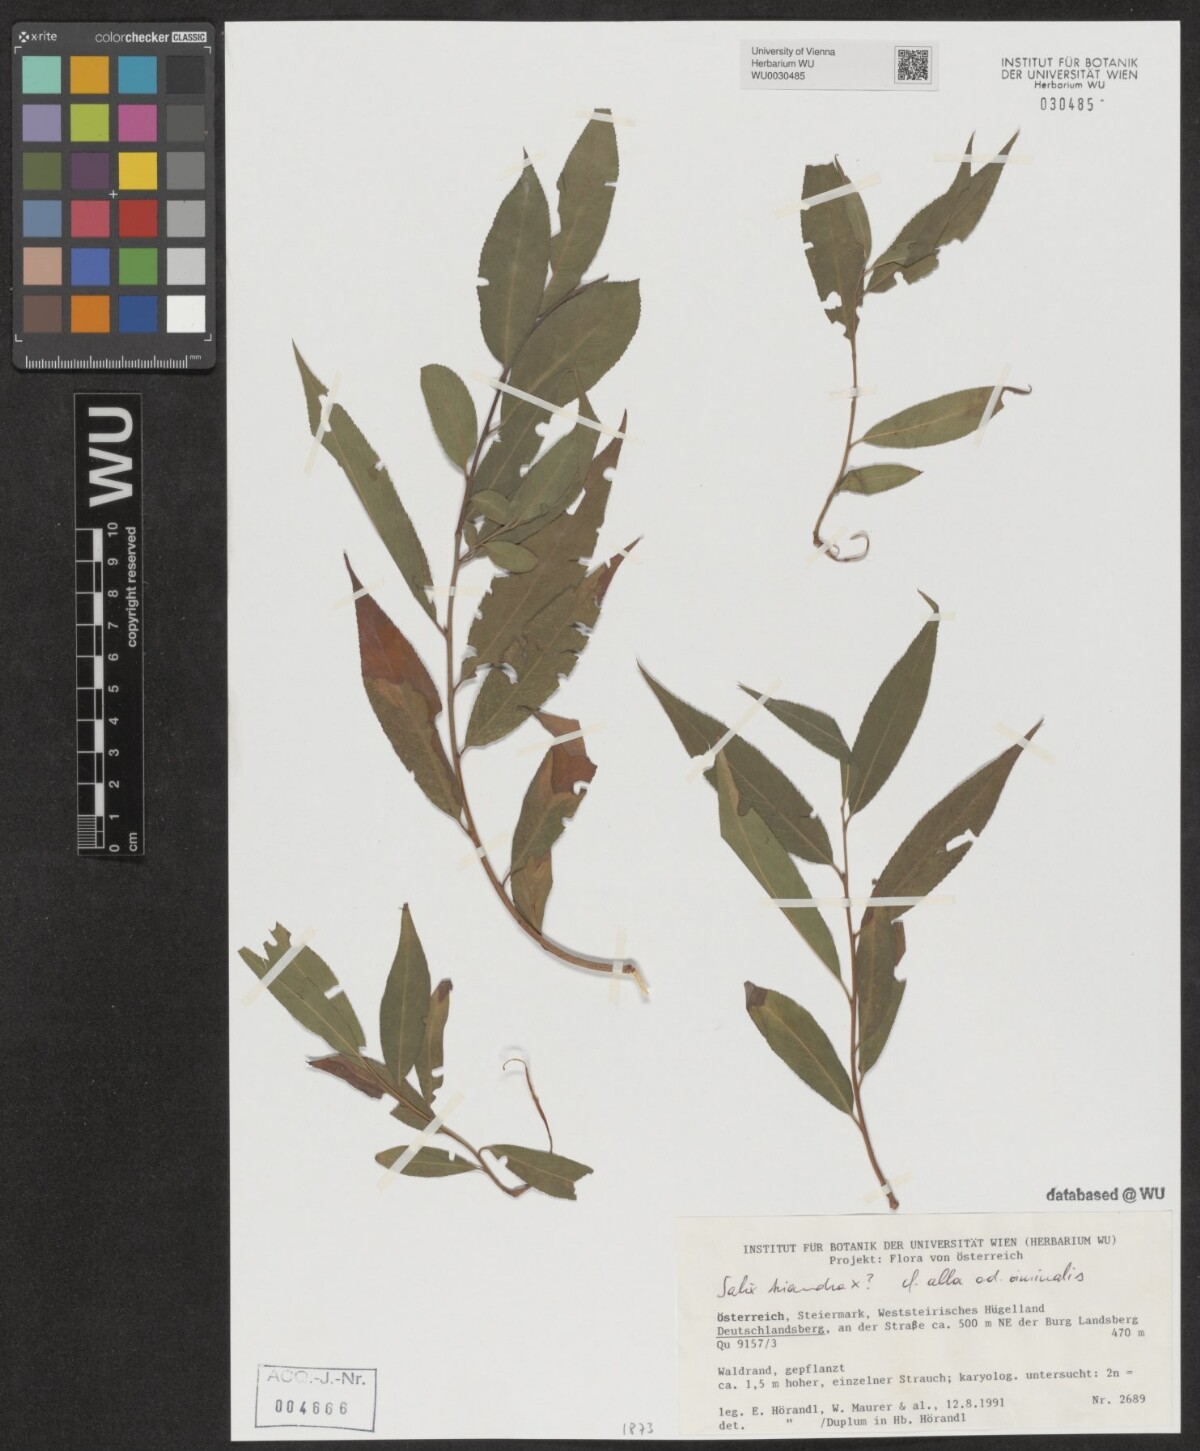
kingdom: Plantae
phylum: Tracheophyta
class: Magnoliopsida
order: Malpighiales
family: Salicaceae
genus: Salix
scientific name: Salix triandra
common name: Almond willow
